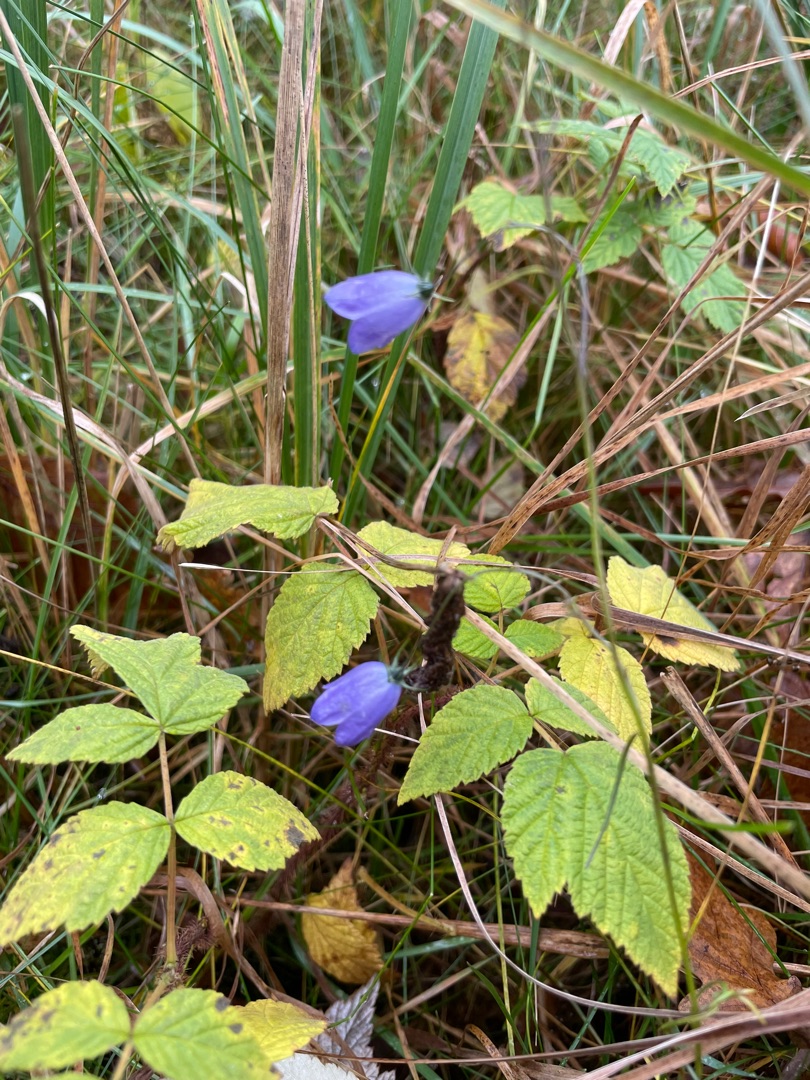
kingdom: Plantae
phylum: Tracheophyta
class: Magnoliopsida
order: Asterales
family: Campanulaceae
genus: Campanula
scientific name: Campanula rotundifolia
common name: Liden klokke
